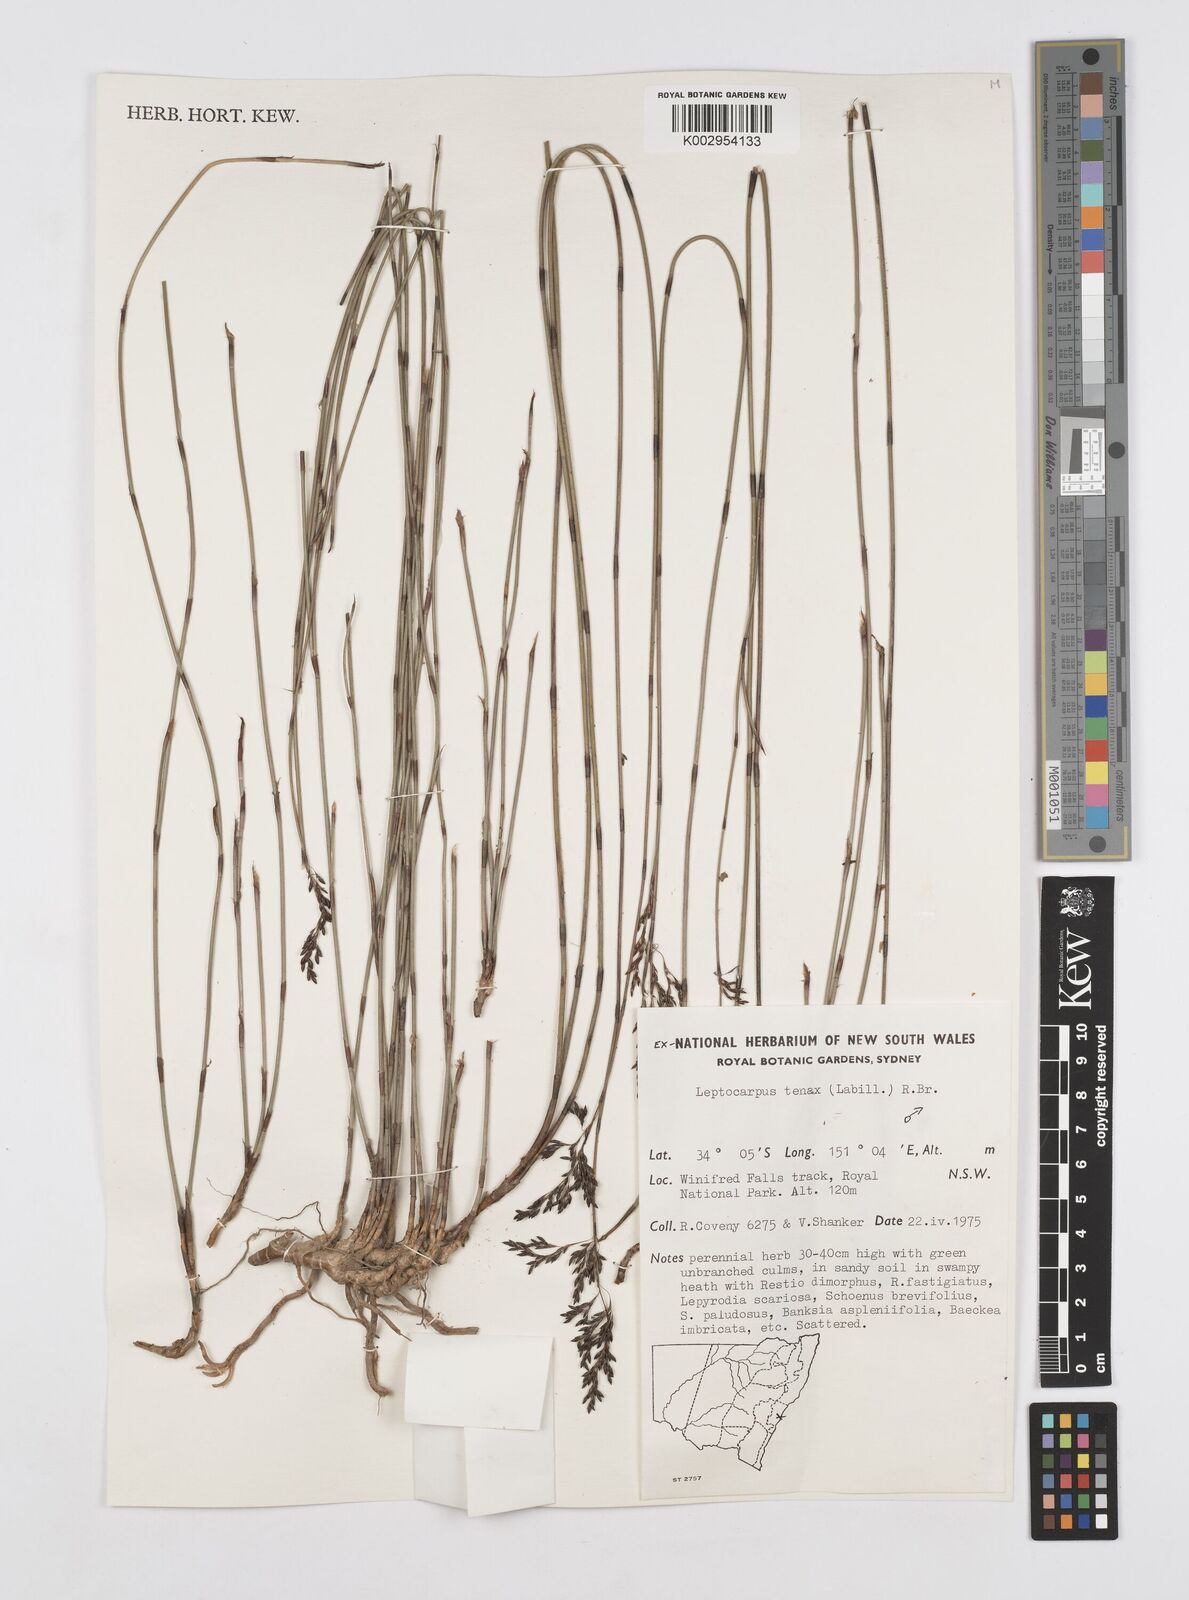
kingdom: Plantae
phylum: Tracheophyta
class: Liliopsida
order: Poales
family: Restionaceae
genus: Leptocarpus
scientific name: Leptocarpus tenax
